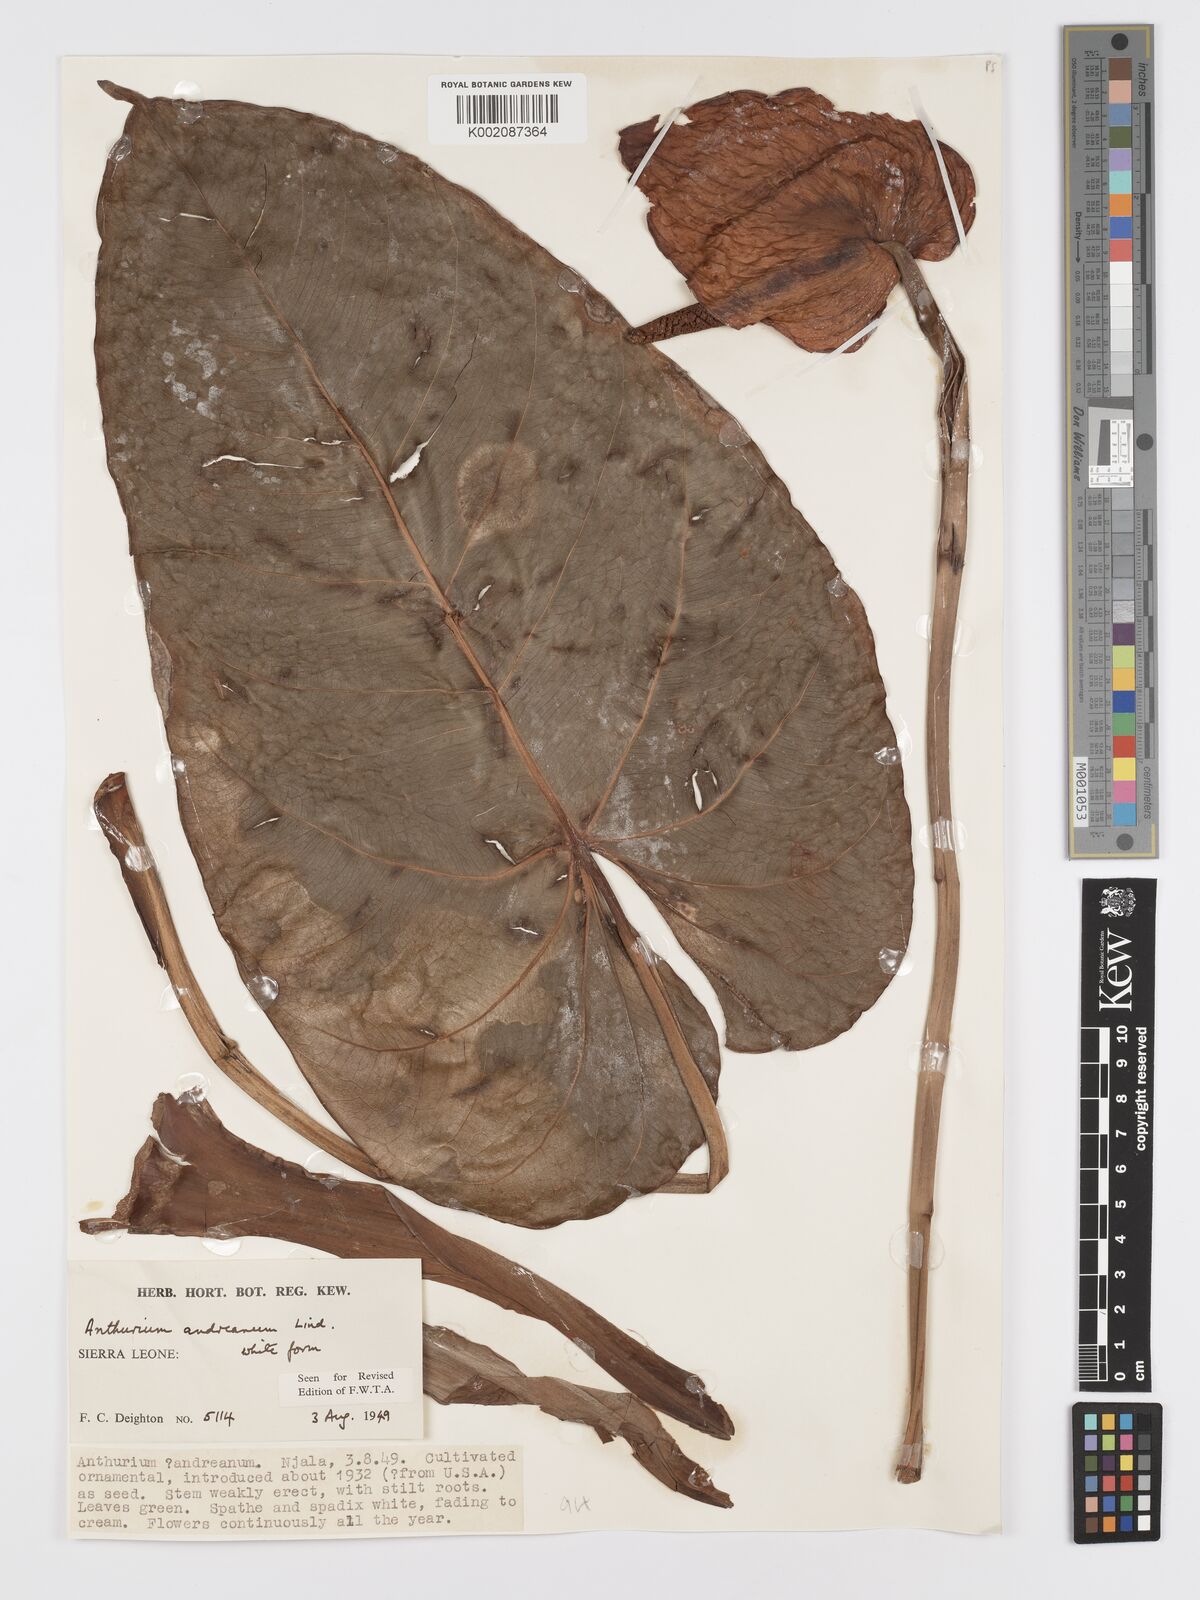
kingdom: Plantae
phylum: Tracheophyta
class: Liliopsida
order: Alismatales
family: Araceae
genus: Anthurium
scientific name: Anthurium andraeanum
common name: Flamingo-flower
